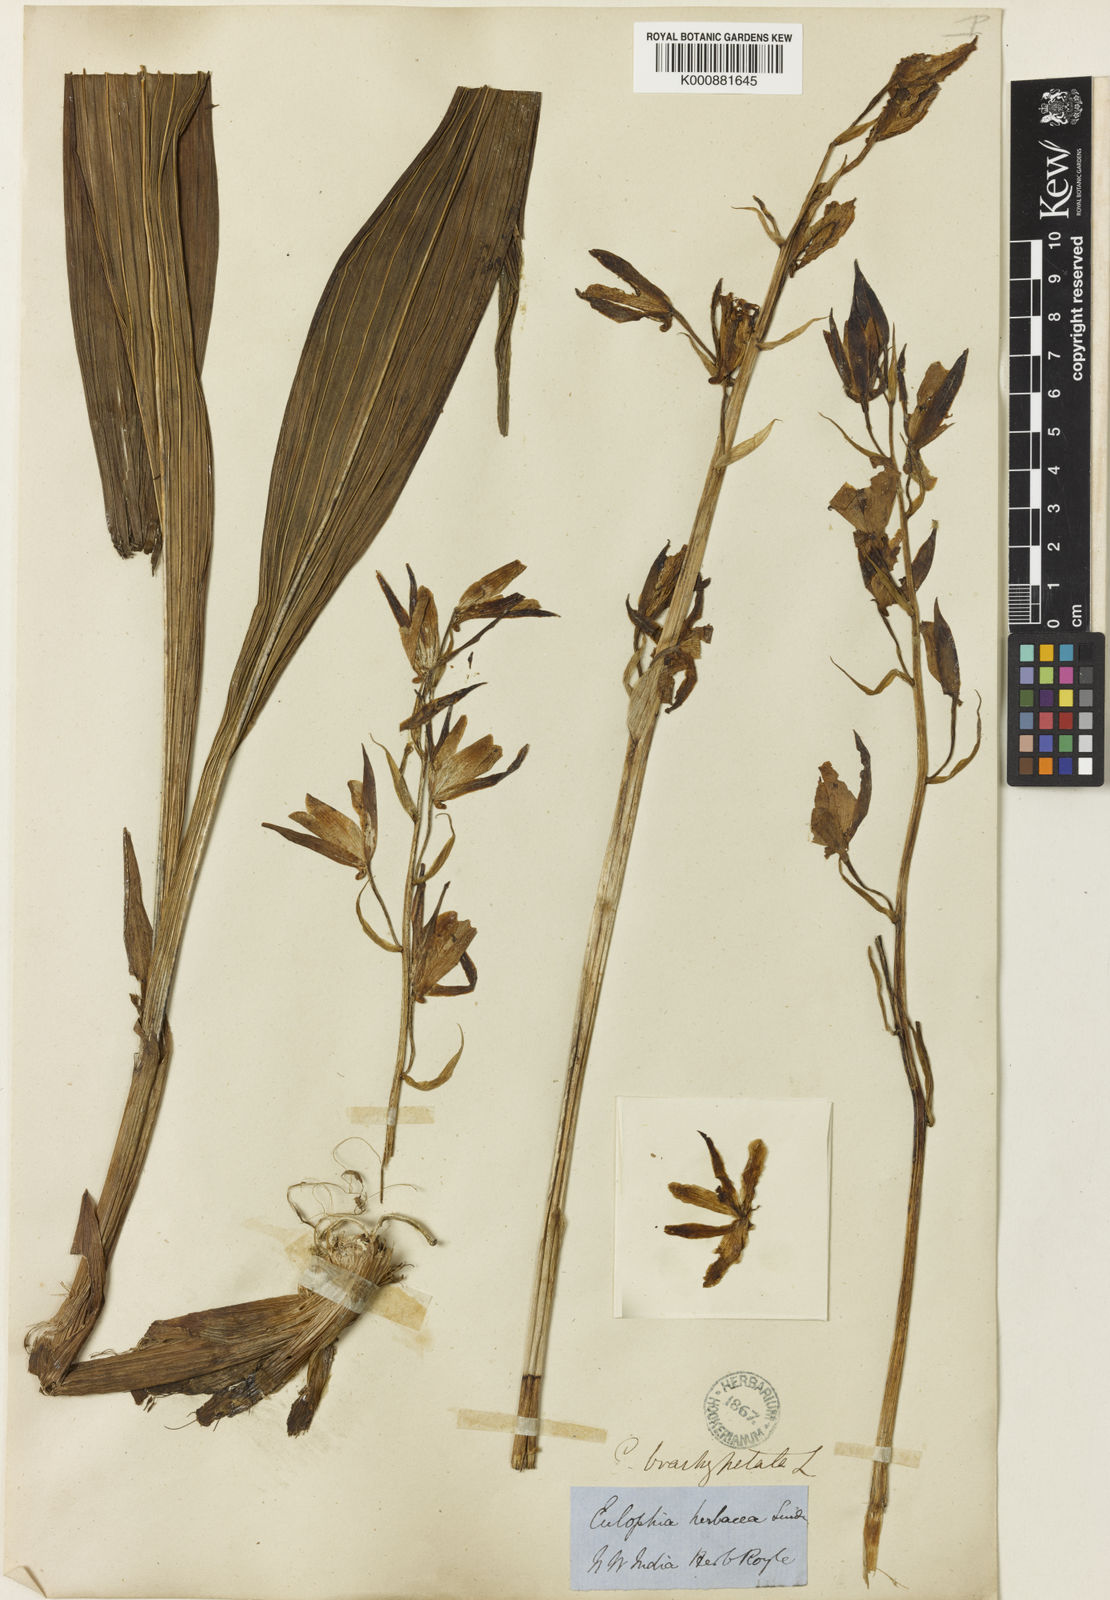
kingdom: Plantae
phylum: Tracheophyta
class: Liliopsida
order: Asparagales
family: Orchidaceae
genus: Eulophia
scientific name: Eulophia herbacea
